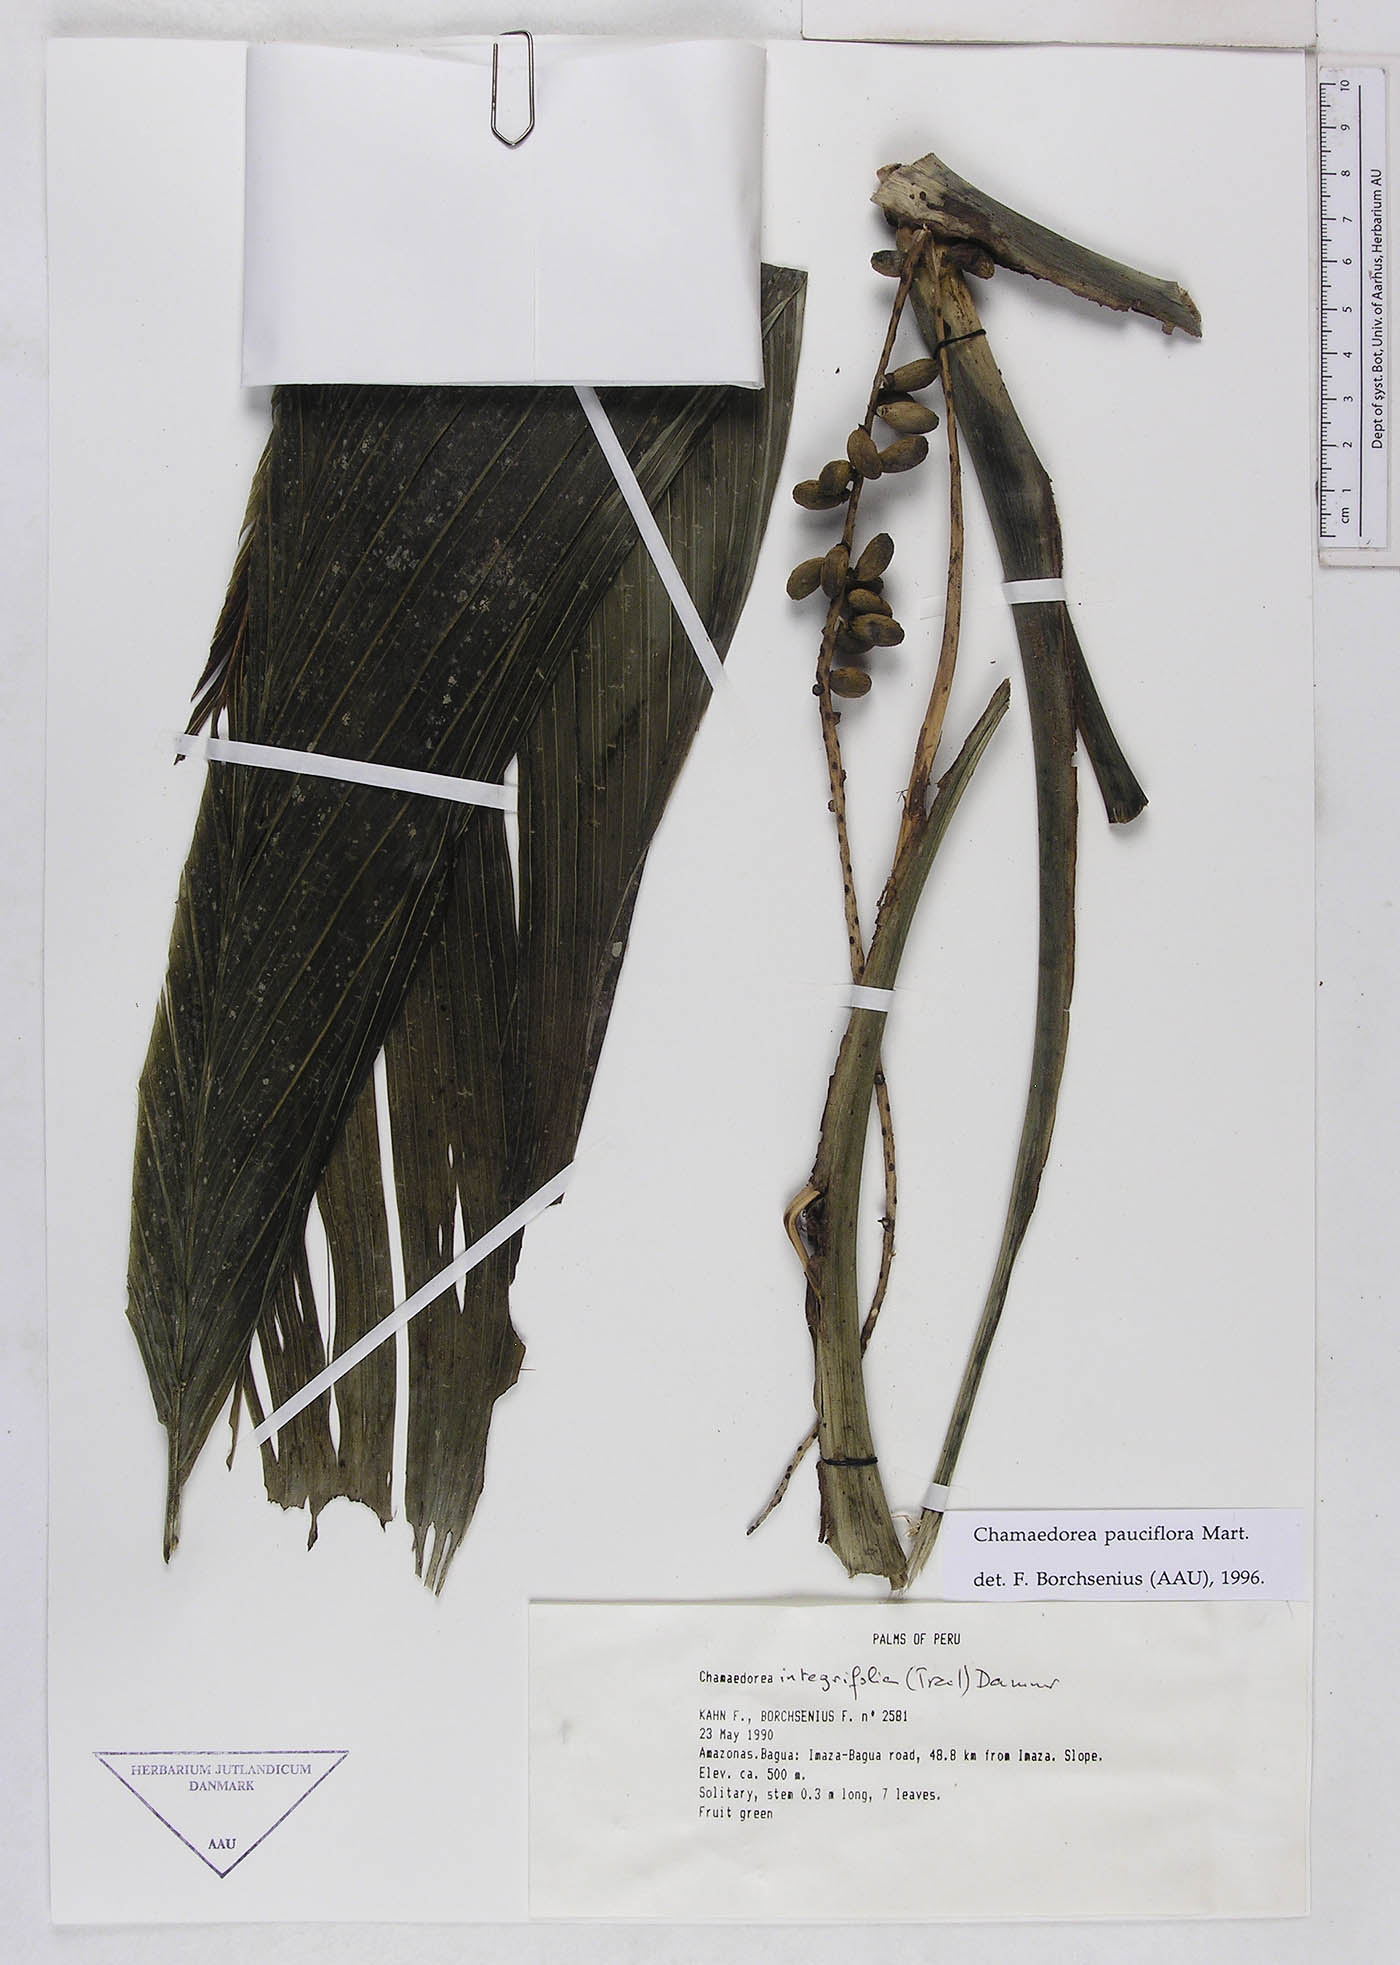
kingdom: Plantae
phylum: Tracheophyta
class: Liliopsida
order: Arecales
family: Arecaceae
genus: Chamaedorea
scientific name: Chamaedorea pauciflora
